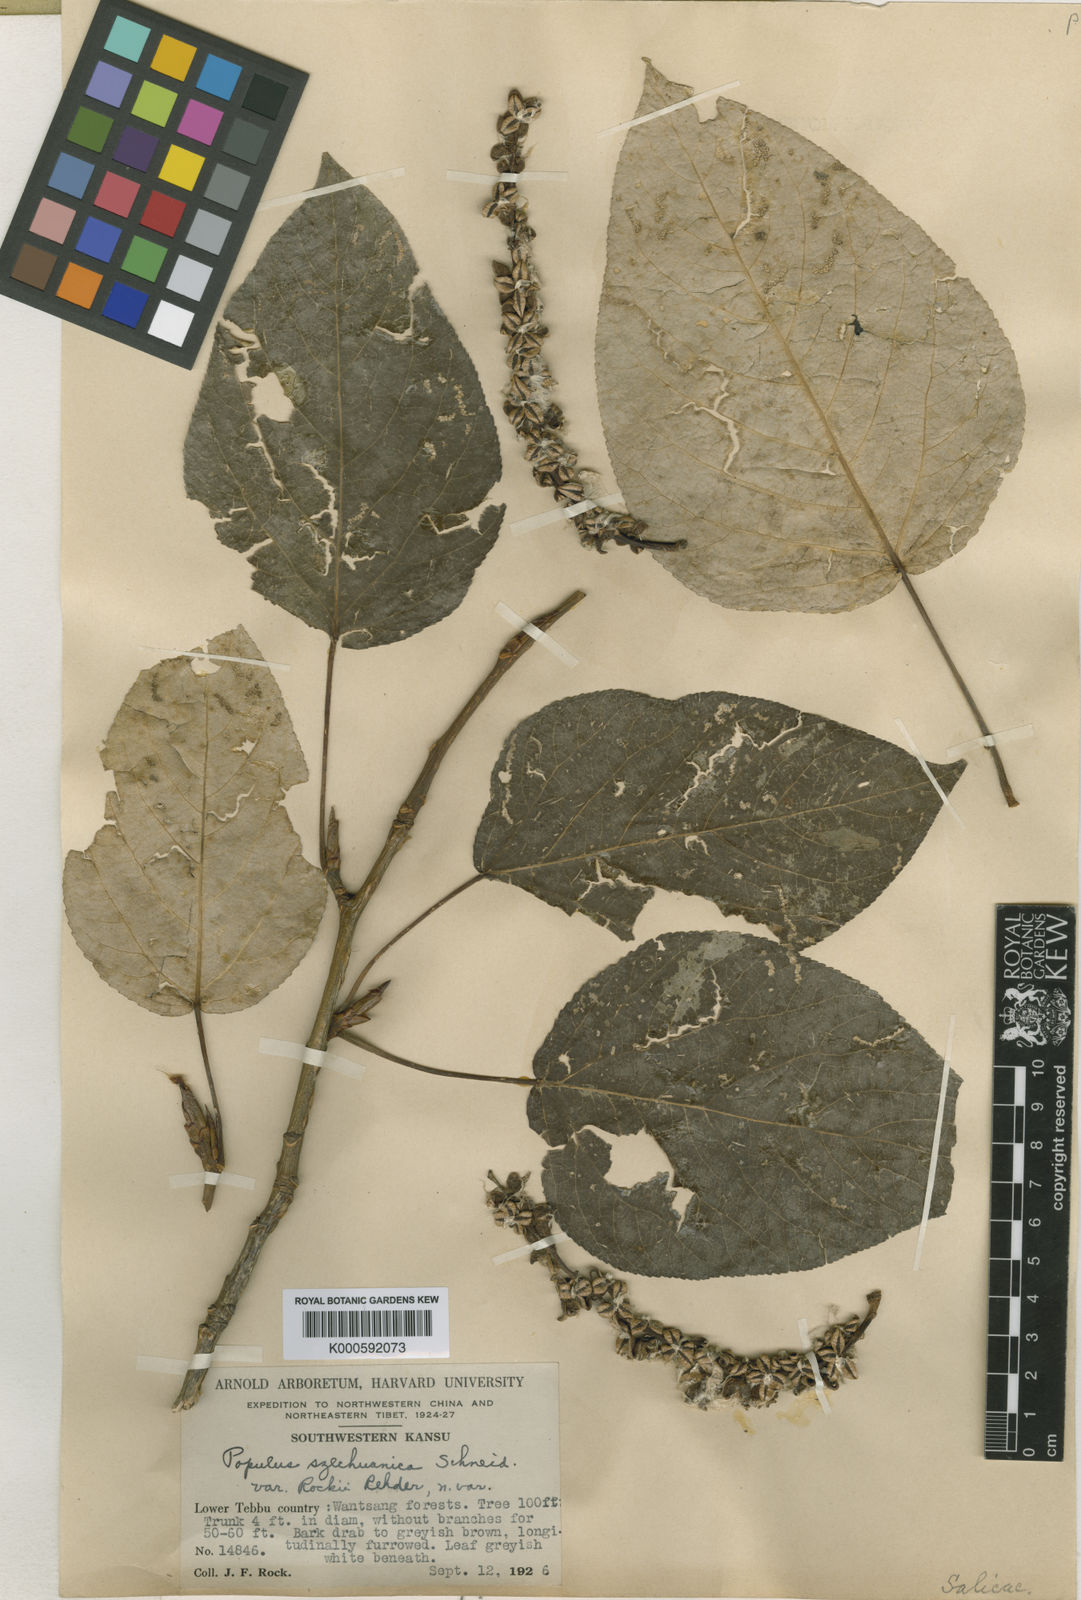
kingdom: Plantae
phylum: Tracheophyta
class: Magnoliopsida
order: Malpighiales
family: Salicaceae
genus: Populus
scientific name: Populus rockii
